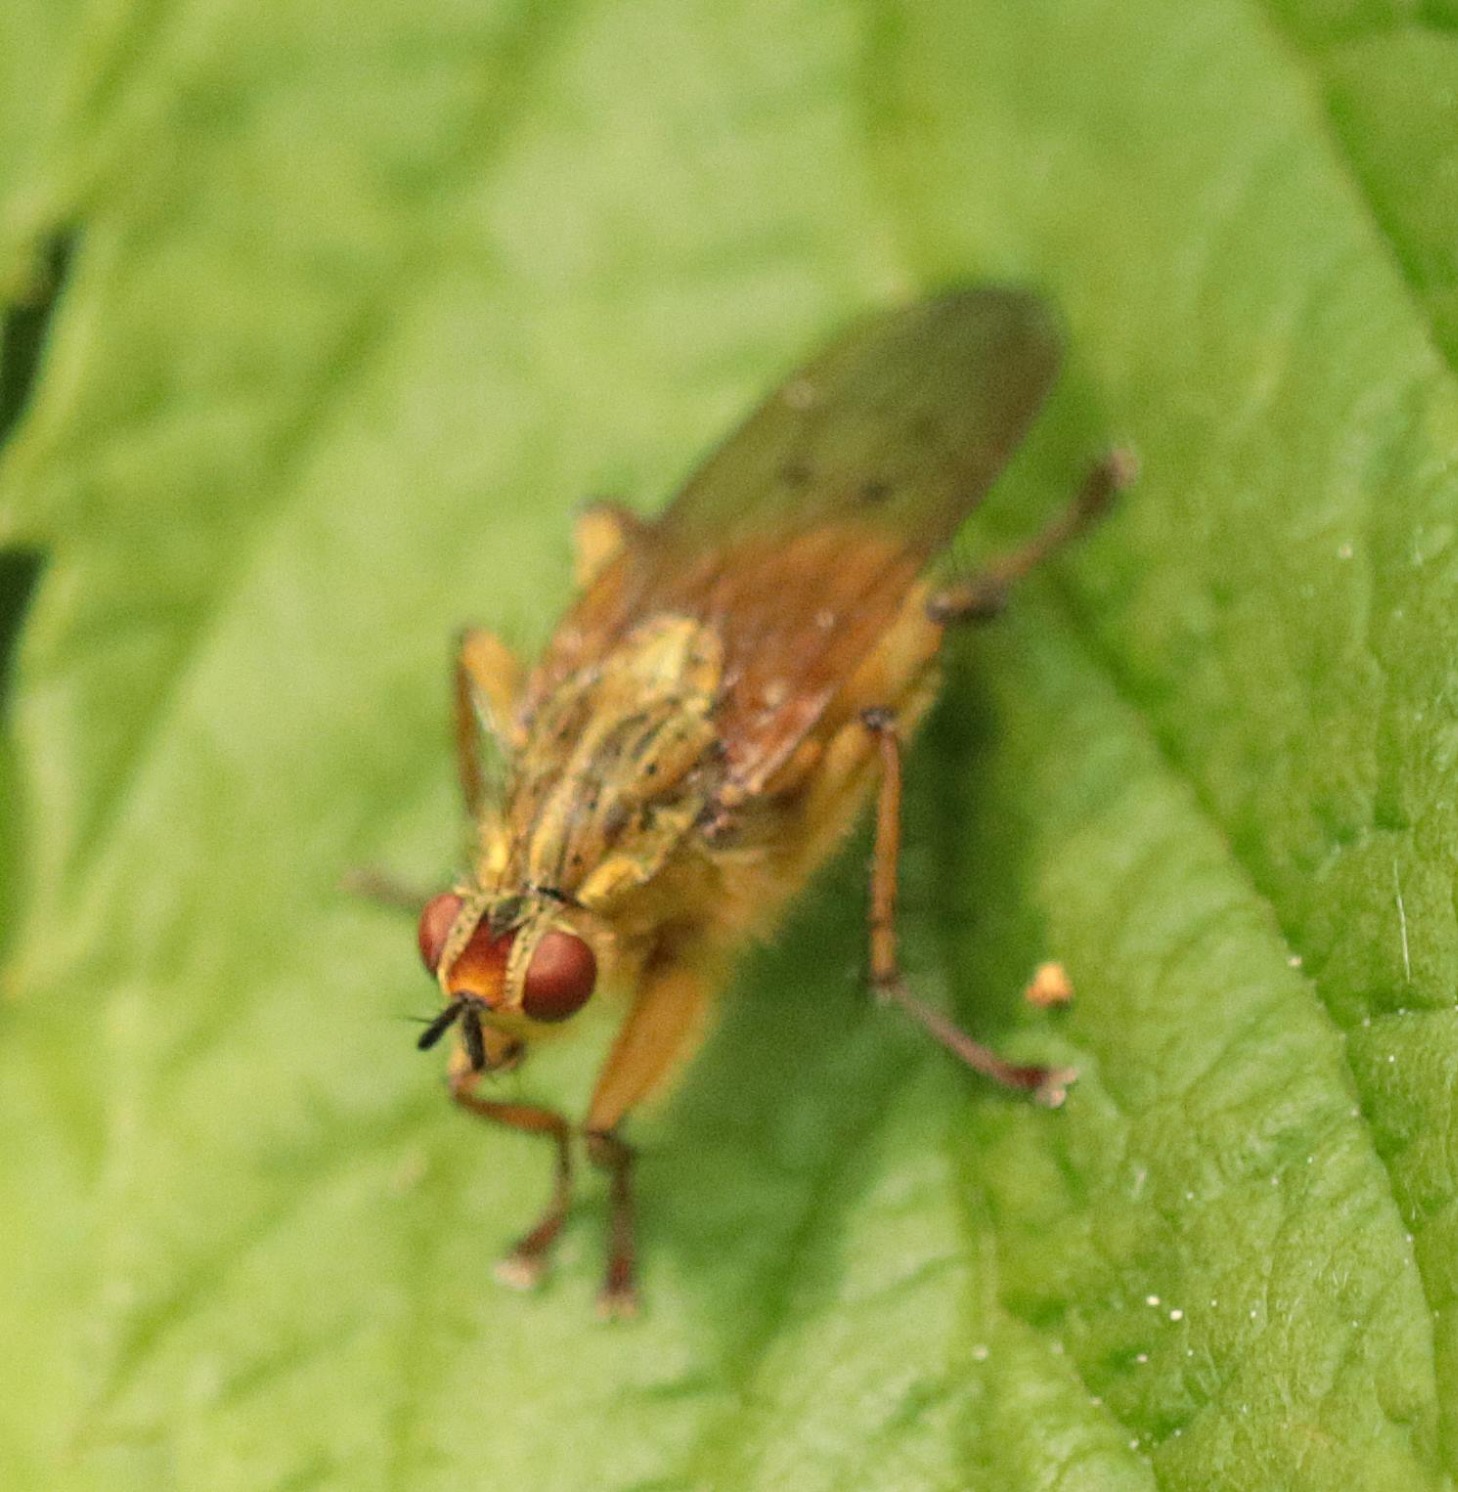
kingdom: Animalia
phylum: Arthropoda
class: Insecta
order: Diptera
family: Scathophagidae
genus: Scathophaga
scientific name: Scathophaga stercoraria
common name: Almindelig gødningsflue
